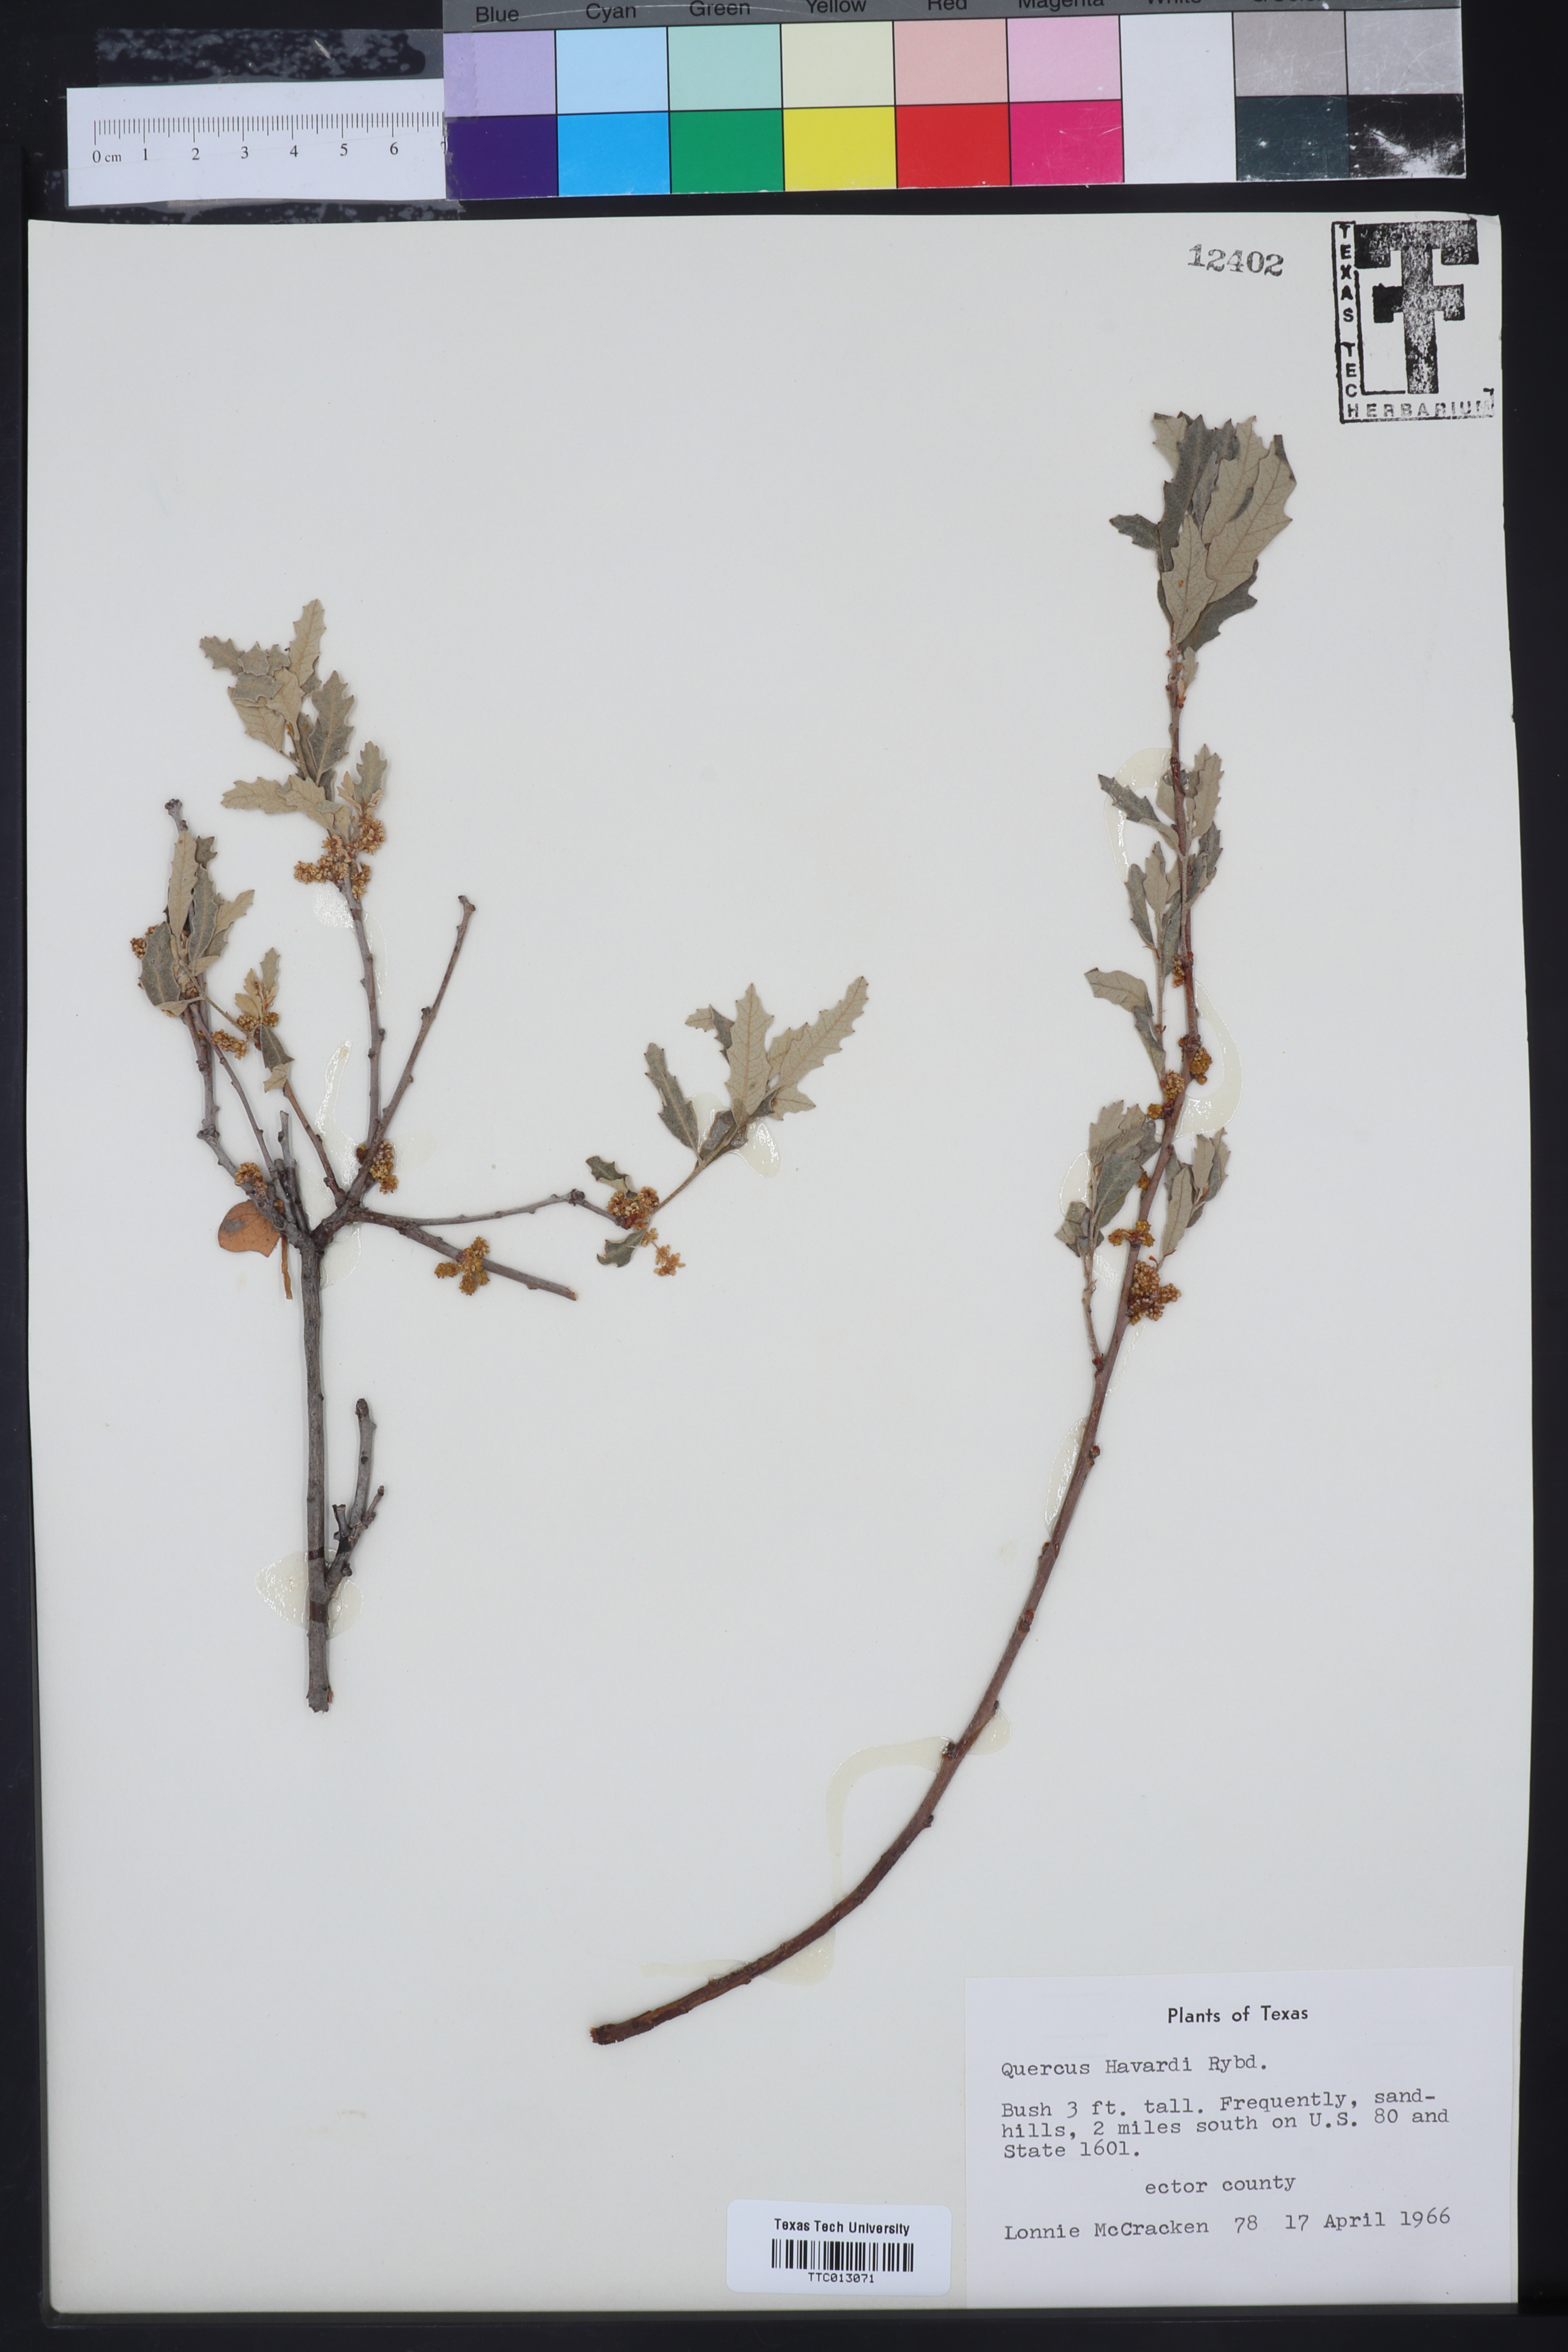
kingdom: Plantae
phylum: Tracheophyta
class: Magnoliopsida
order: Fagales
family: Fagaceae
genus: Quercus
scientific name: Quercus havardii
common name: Shinnery oak
